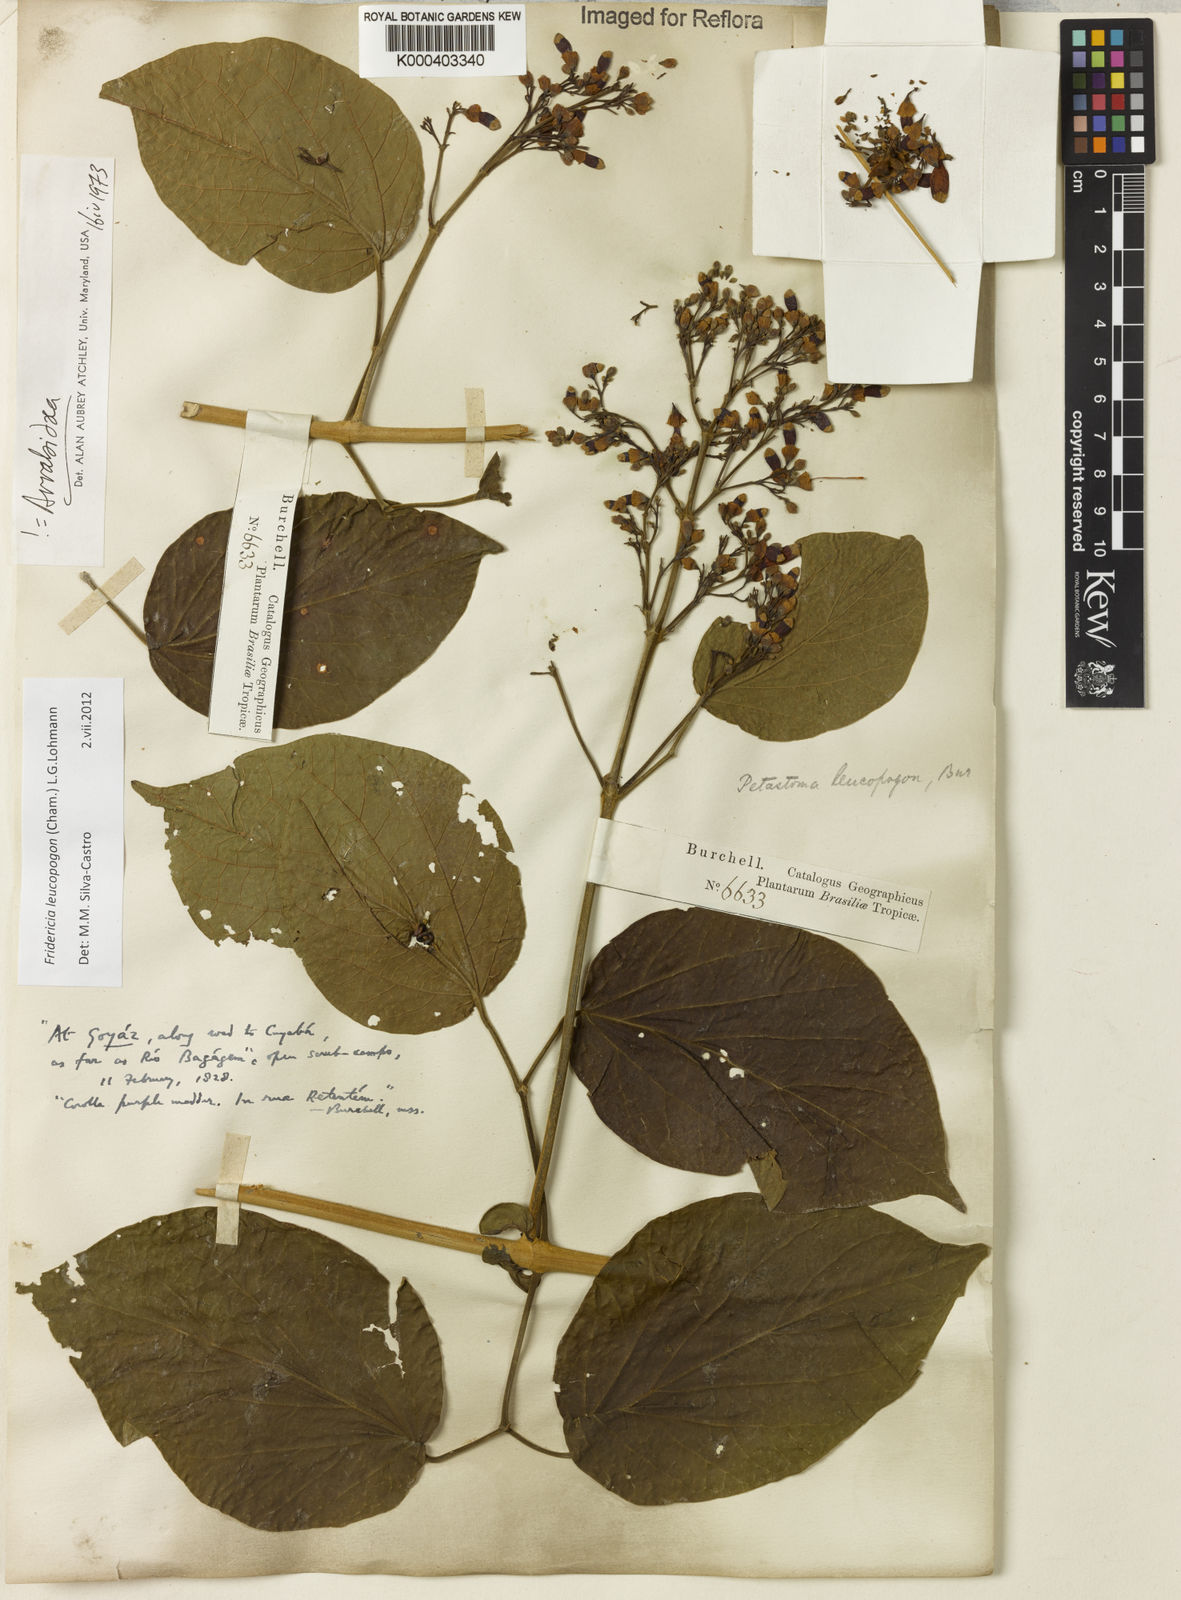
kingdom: Plantae
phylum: Tracheophyta
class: Magnoliopsida
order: Lamiales
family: Bignoniaceae
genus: Fridericia
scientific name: Fridericia leucopogon
